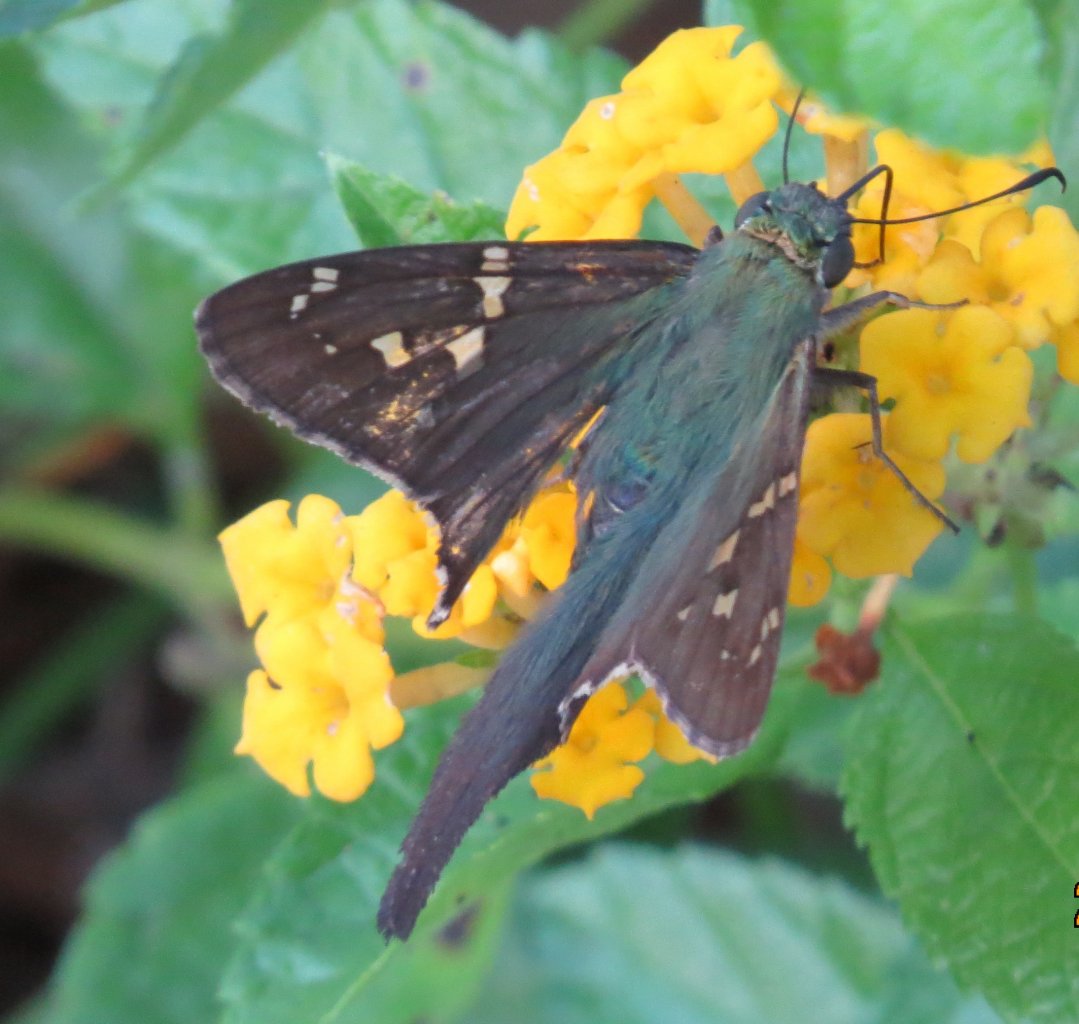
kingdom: Animalia
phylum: Arthropoda
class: Insecta
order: Lepidoptera
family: Hesperiidae
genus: Urbanus
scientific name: Urbanus proteus
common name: Long-tailed Skipper
